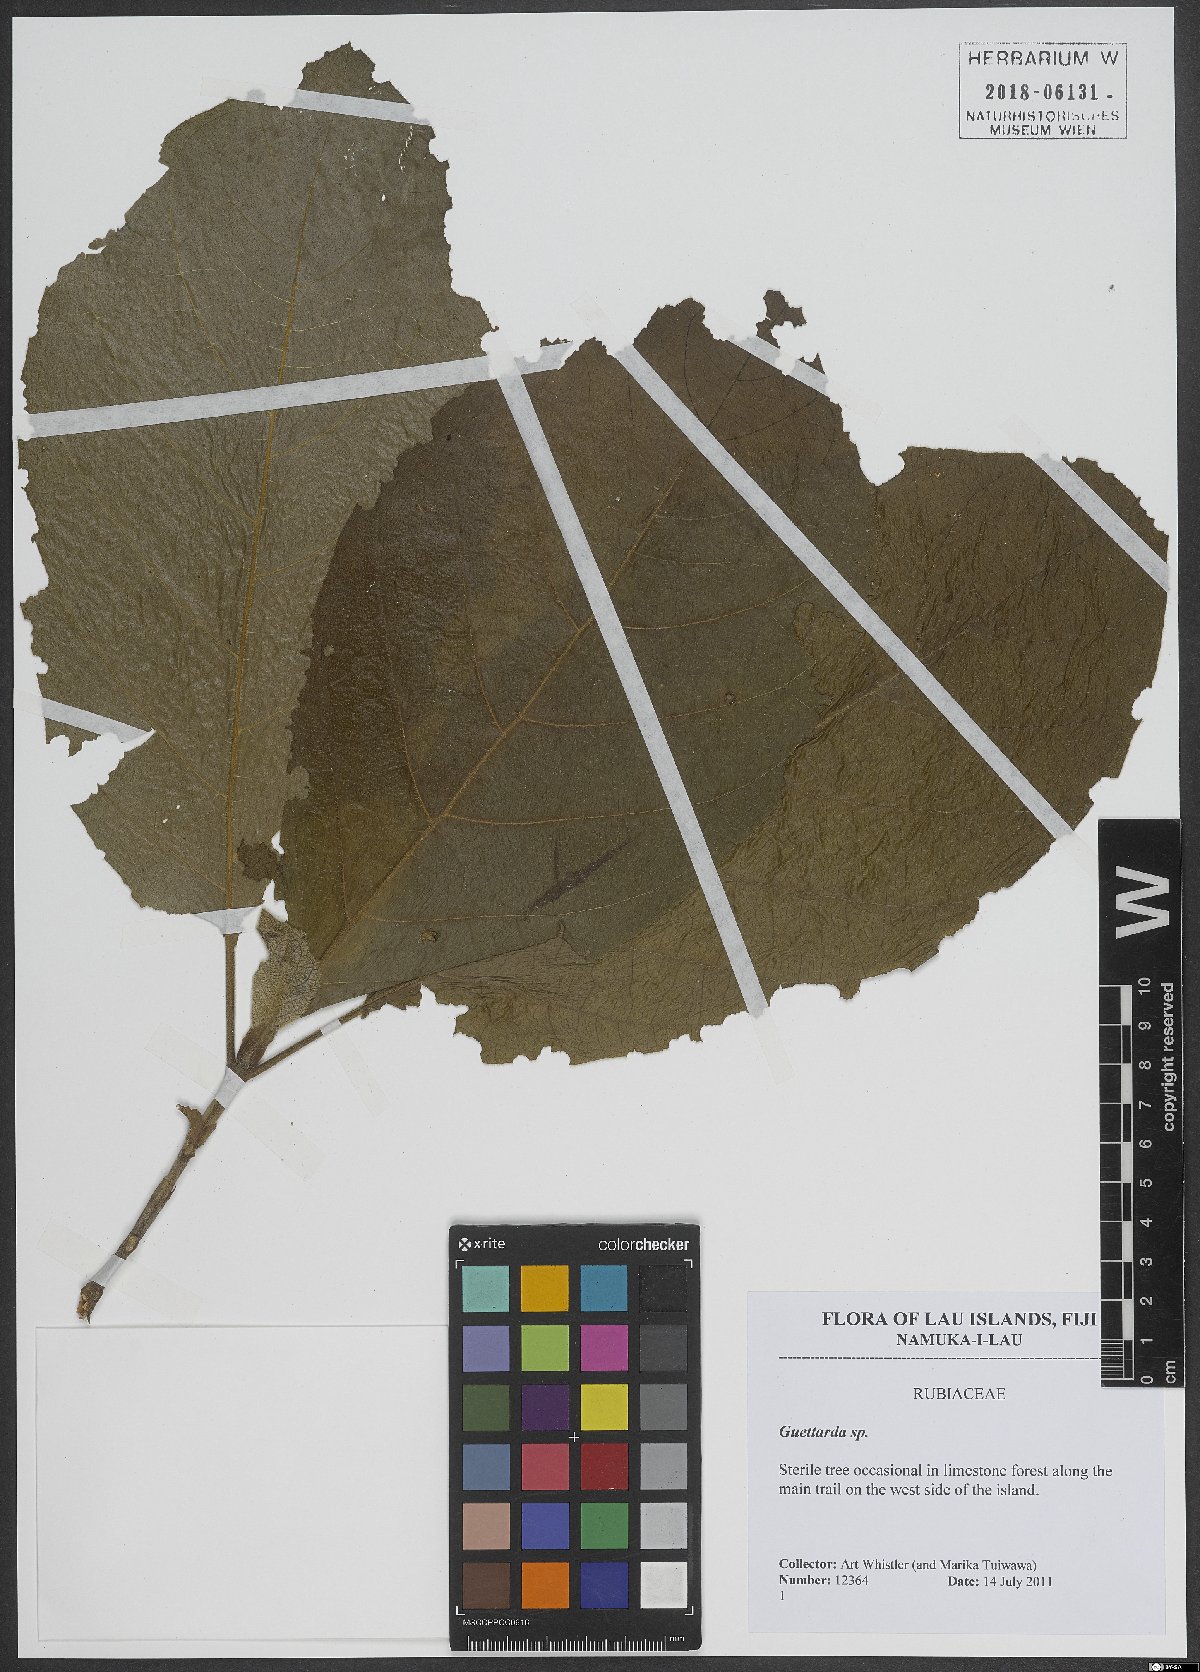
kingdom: Plantae
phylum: Tracheophyta
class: Magnoliopsida
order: Gentianales
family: Rubiaceae
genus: Guettarda
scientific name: Guettarda
